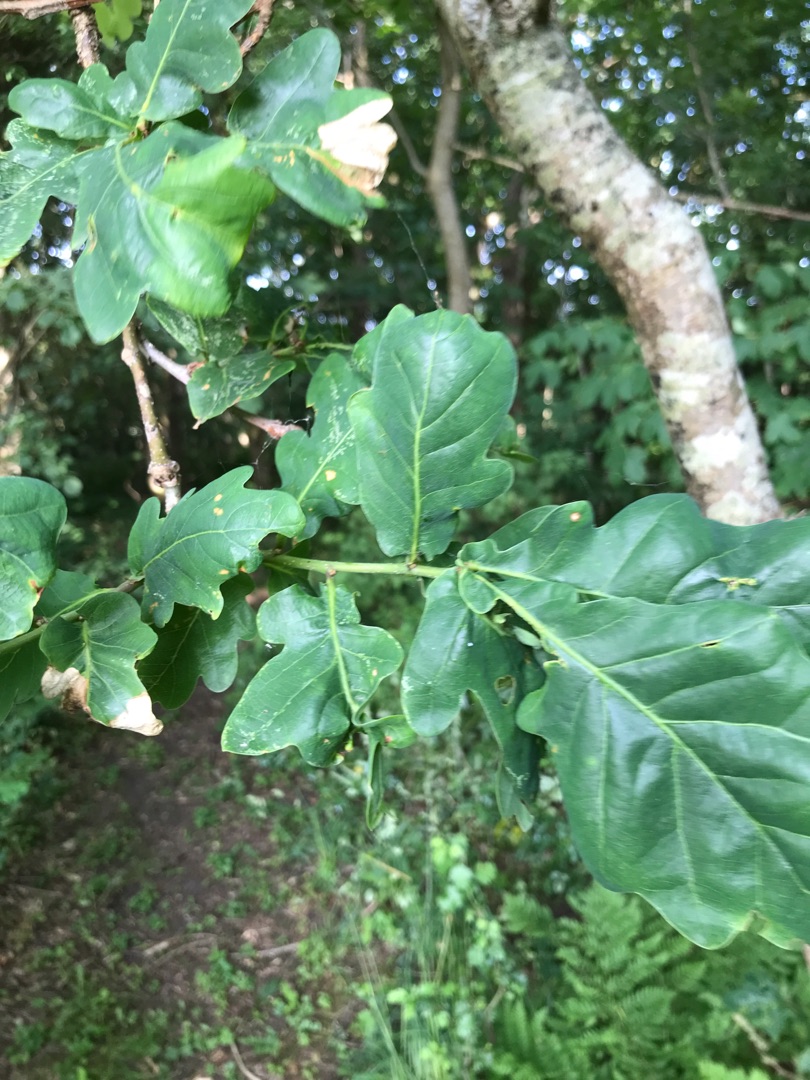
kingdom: Plantae
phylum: Tracheophyta
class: Magnoliopsida
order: Fagales
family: Fagaceae
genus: Quercus
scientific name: Quercus robur
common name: Stilk-eg/almindelig eg
